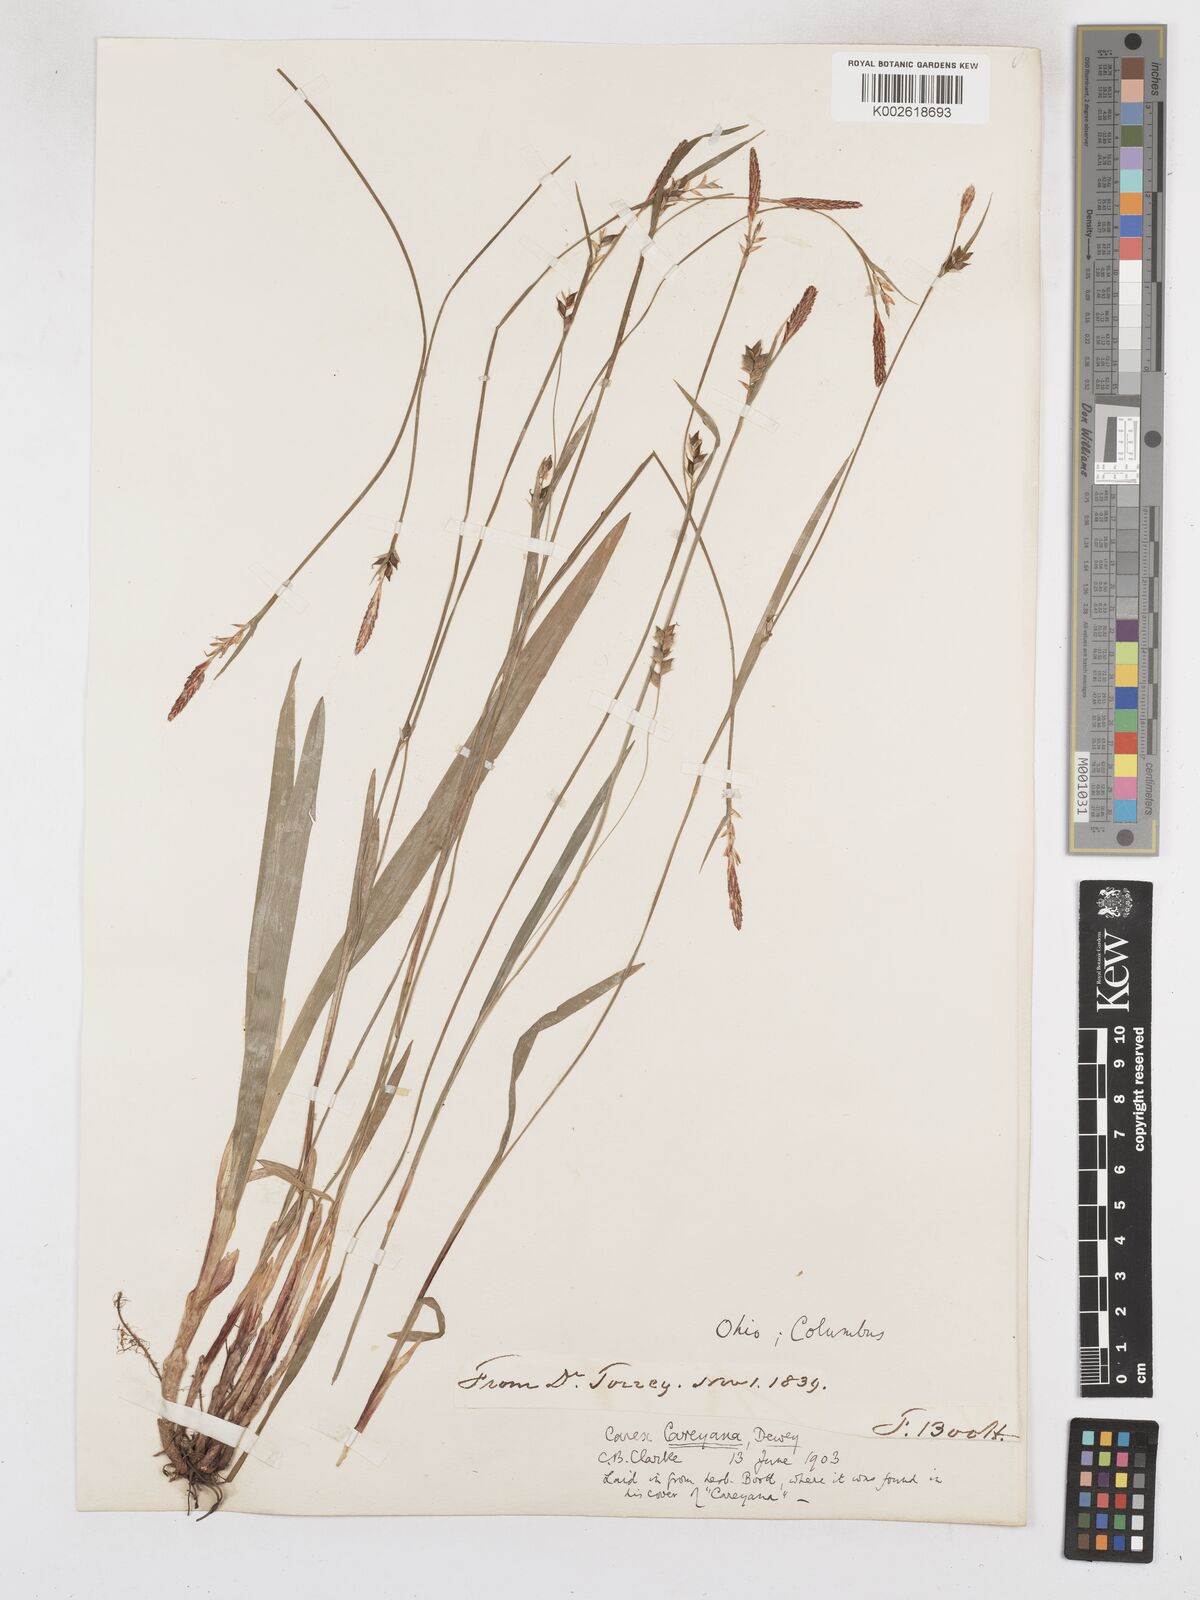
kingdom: Plantae
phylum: Tracheophyta
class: Liliopsida
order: Poales
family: Cyperaceae
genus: Carex
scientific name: Carex careyana
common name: Carey's sedge
